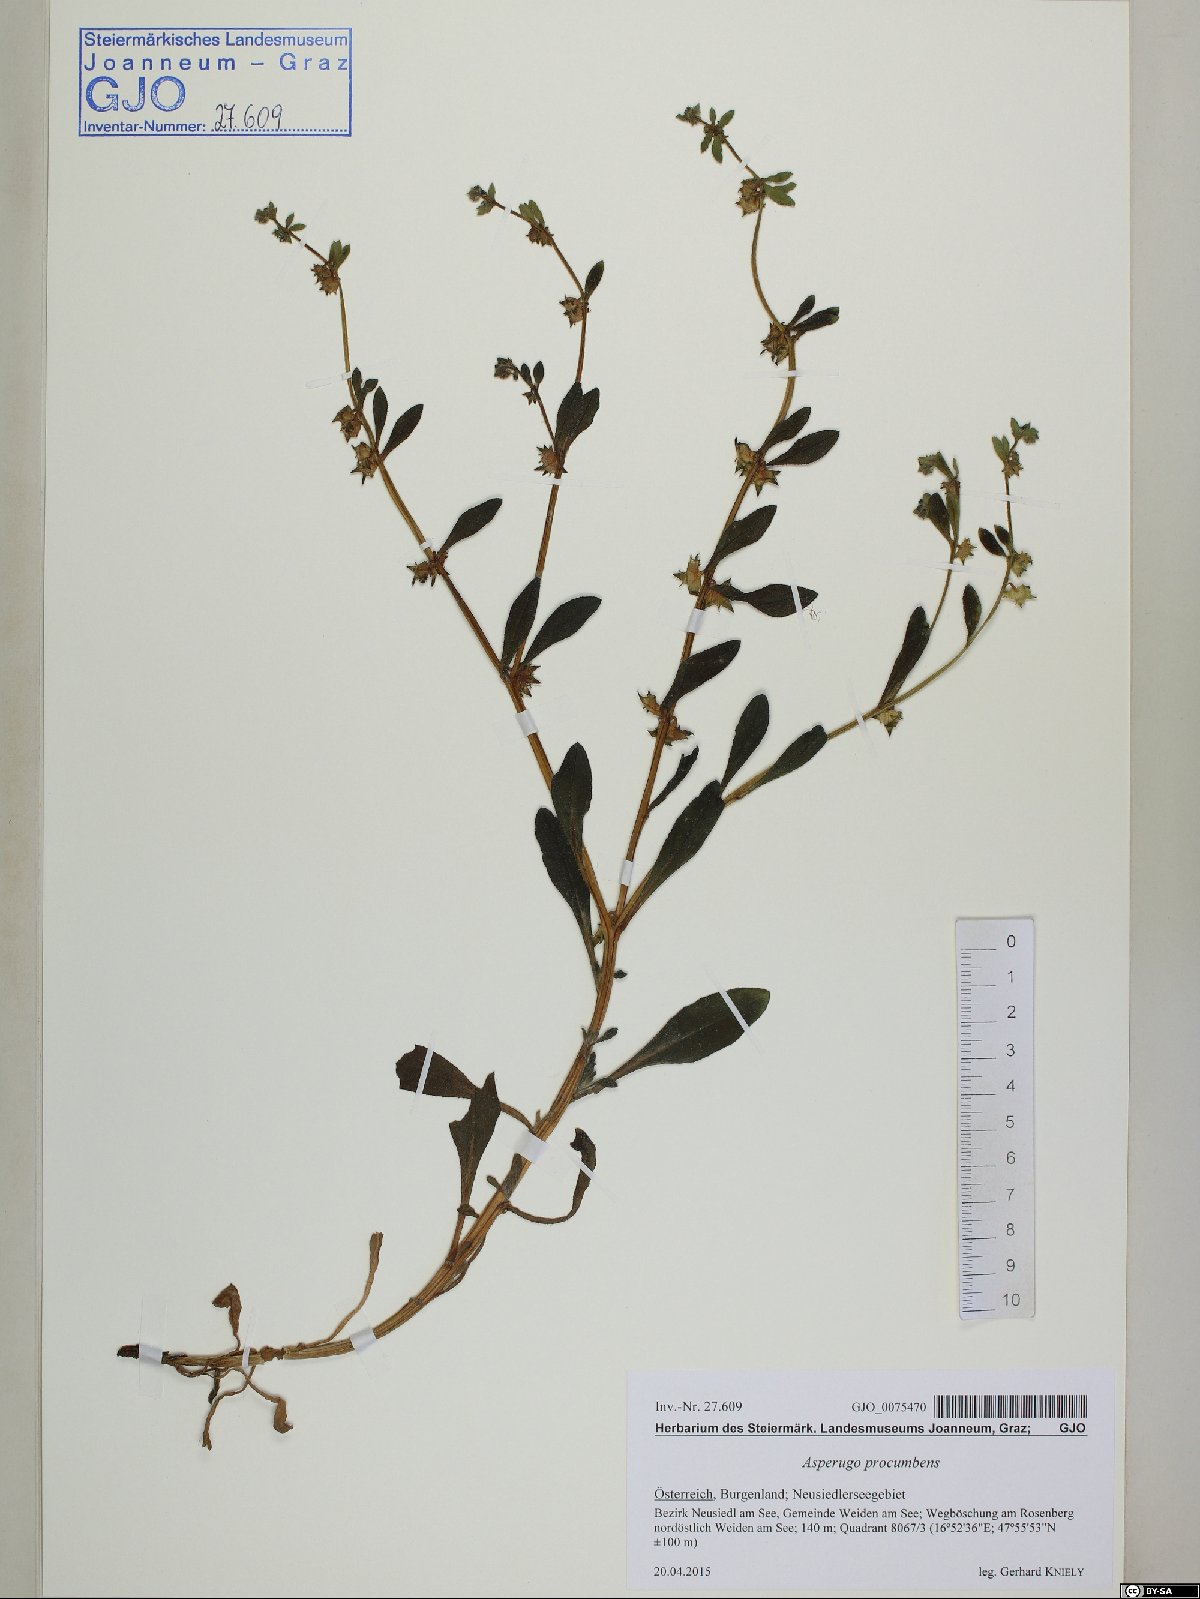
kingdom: Plantae
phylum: Tracheophyta
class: Magnoliopsida
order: Boraginales
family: Boraginaceae
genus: Asperugo
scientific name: Asperugo procumbens
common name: Madwort
